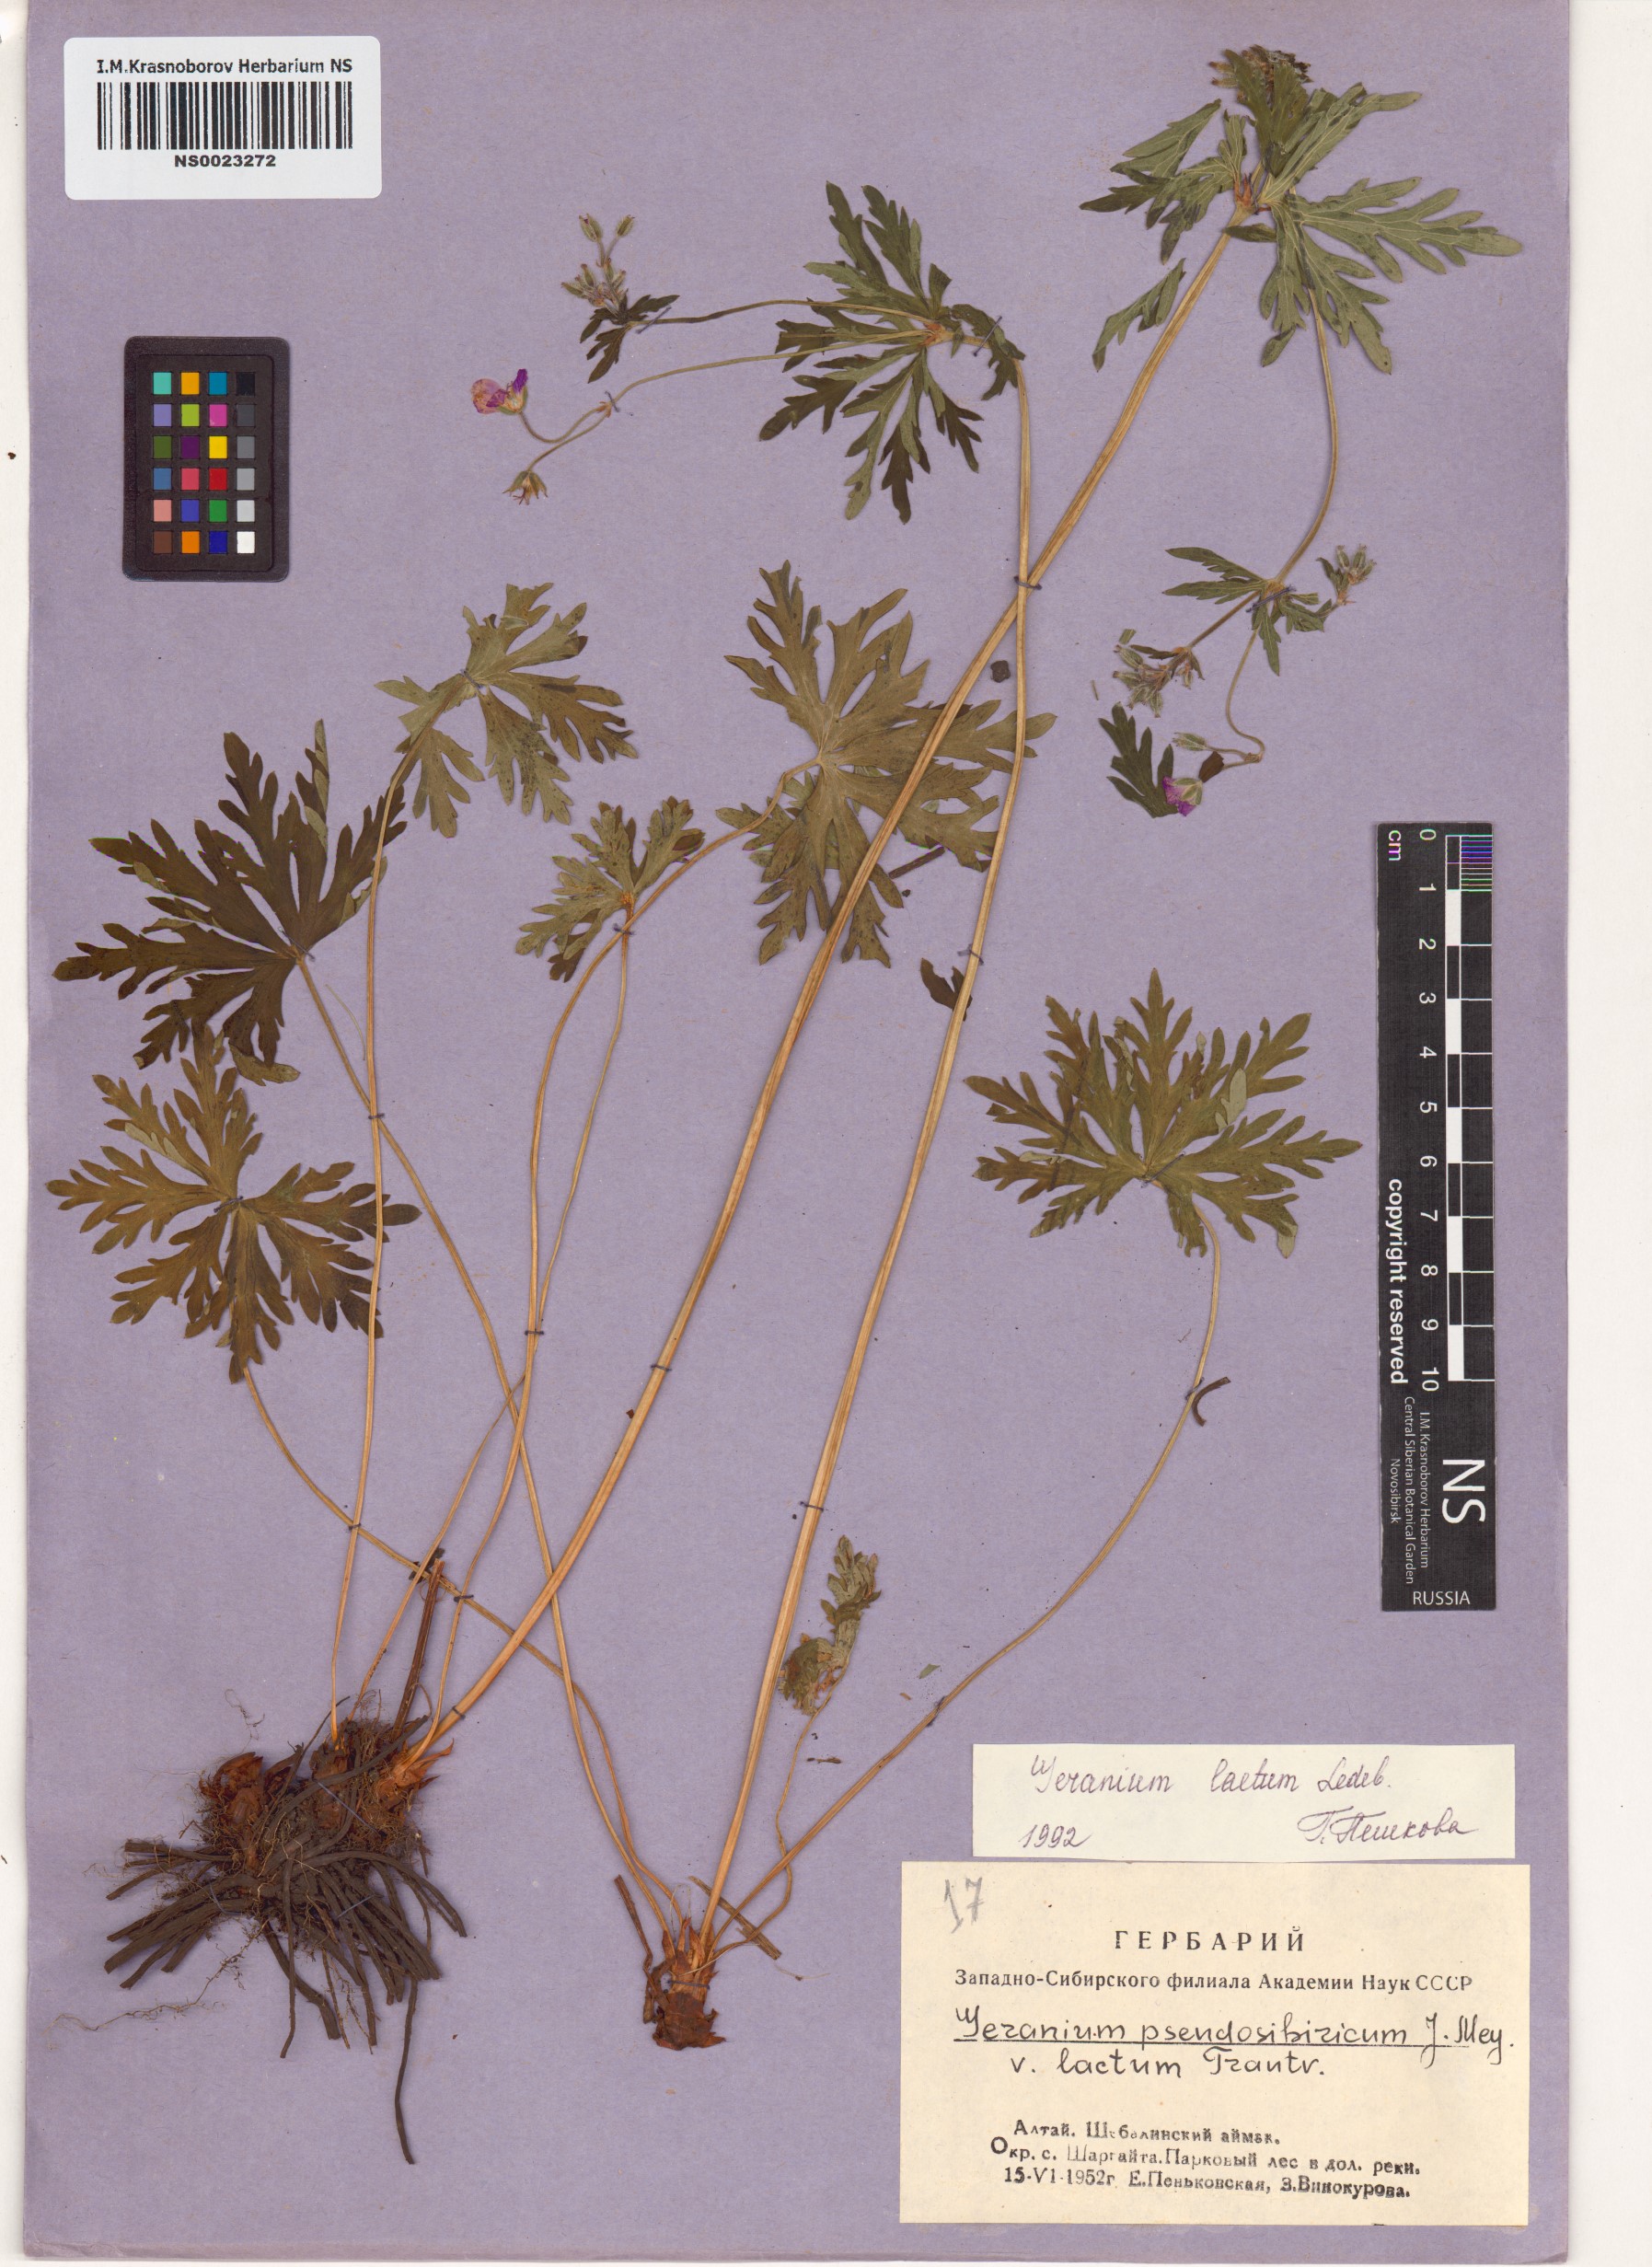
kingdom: Plantae
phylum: Tracheophyta
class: Magnoliopsida
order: Geraniales
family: Geraniaceae
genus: Geranium
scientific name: Geranium pseudosibiricum
